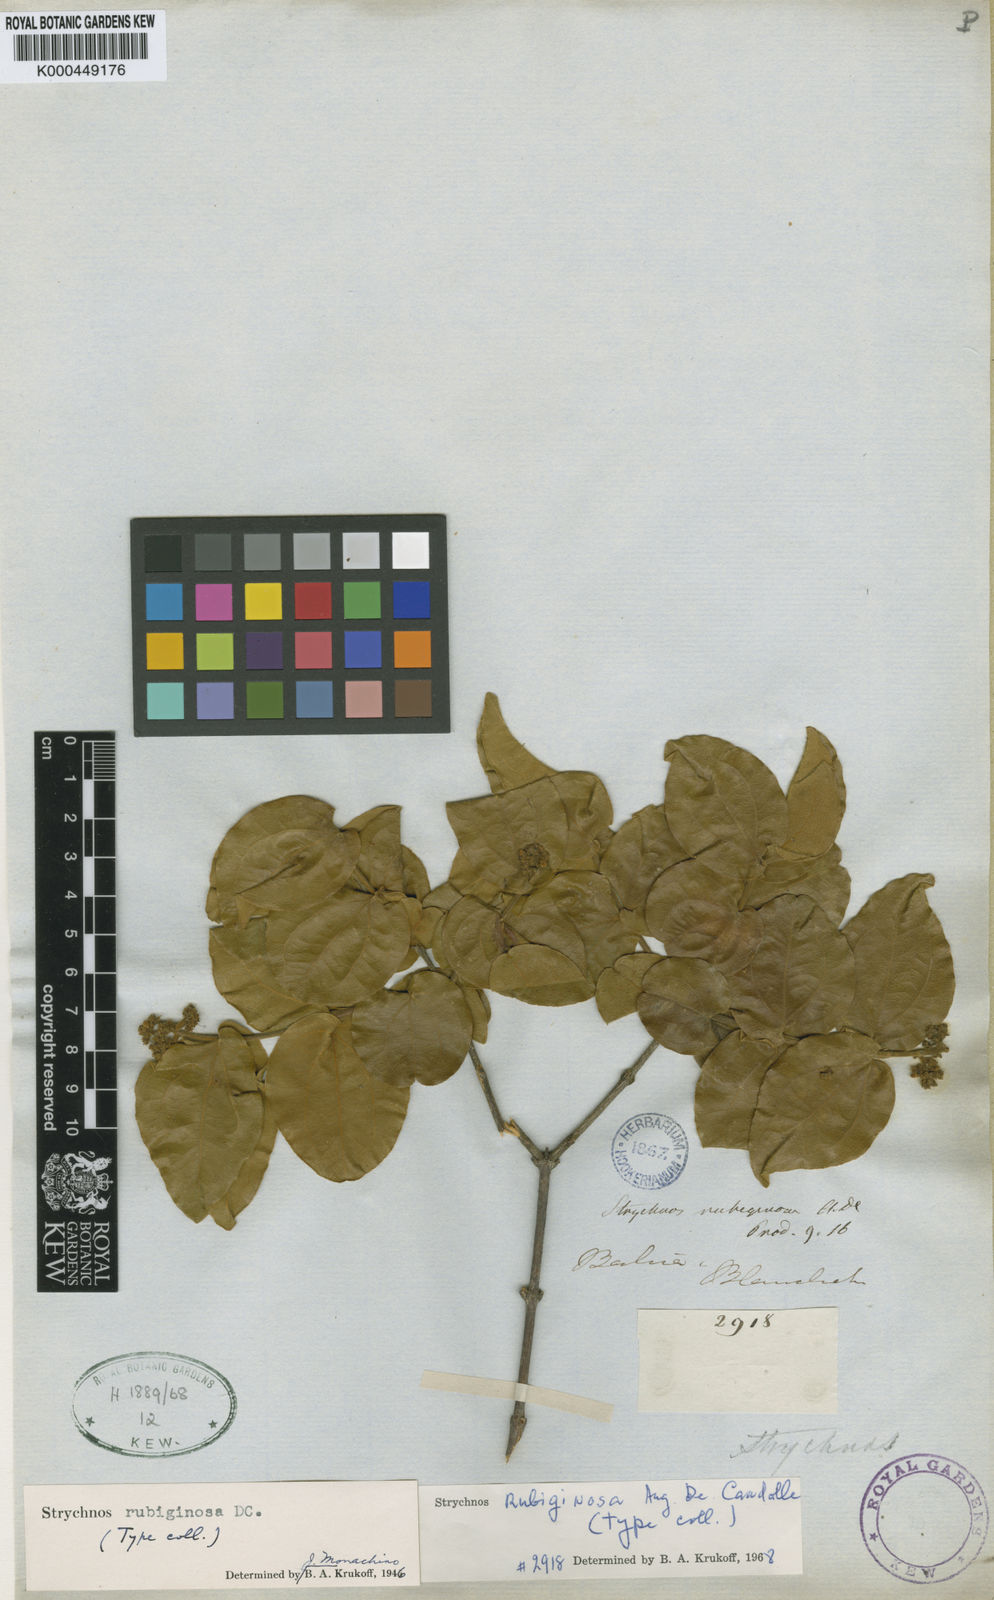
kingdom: Plantae
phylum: Tracheophyta
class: Magnoliopsida
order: Gentianales
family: Loganiaceae
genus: Strychnos
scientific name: Strychnos rubiginosa
